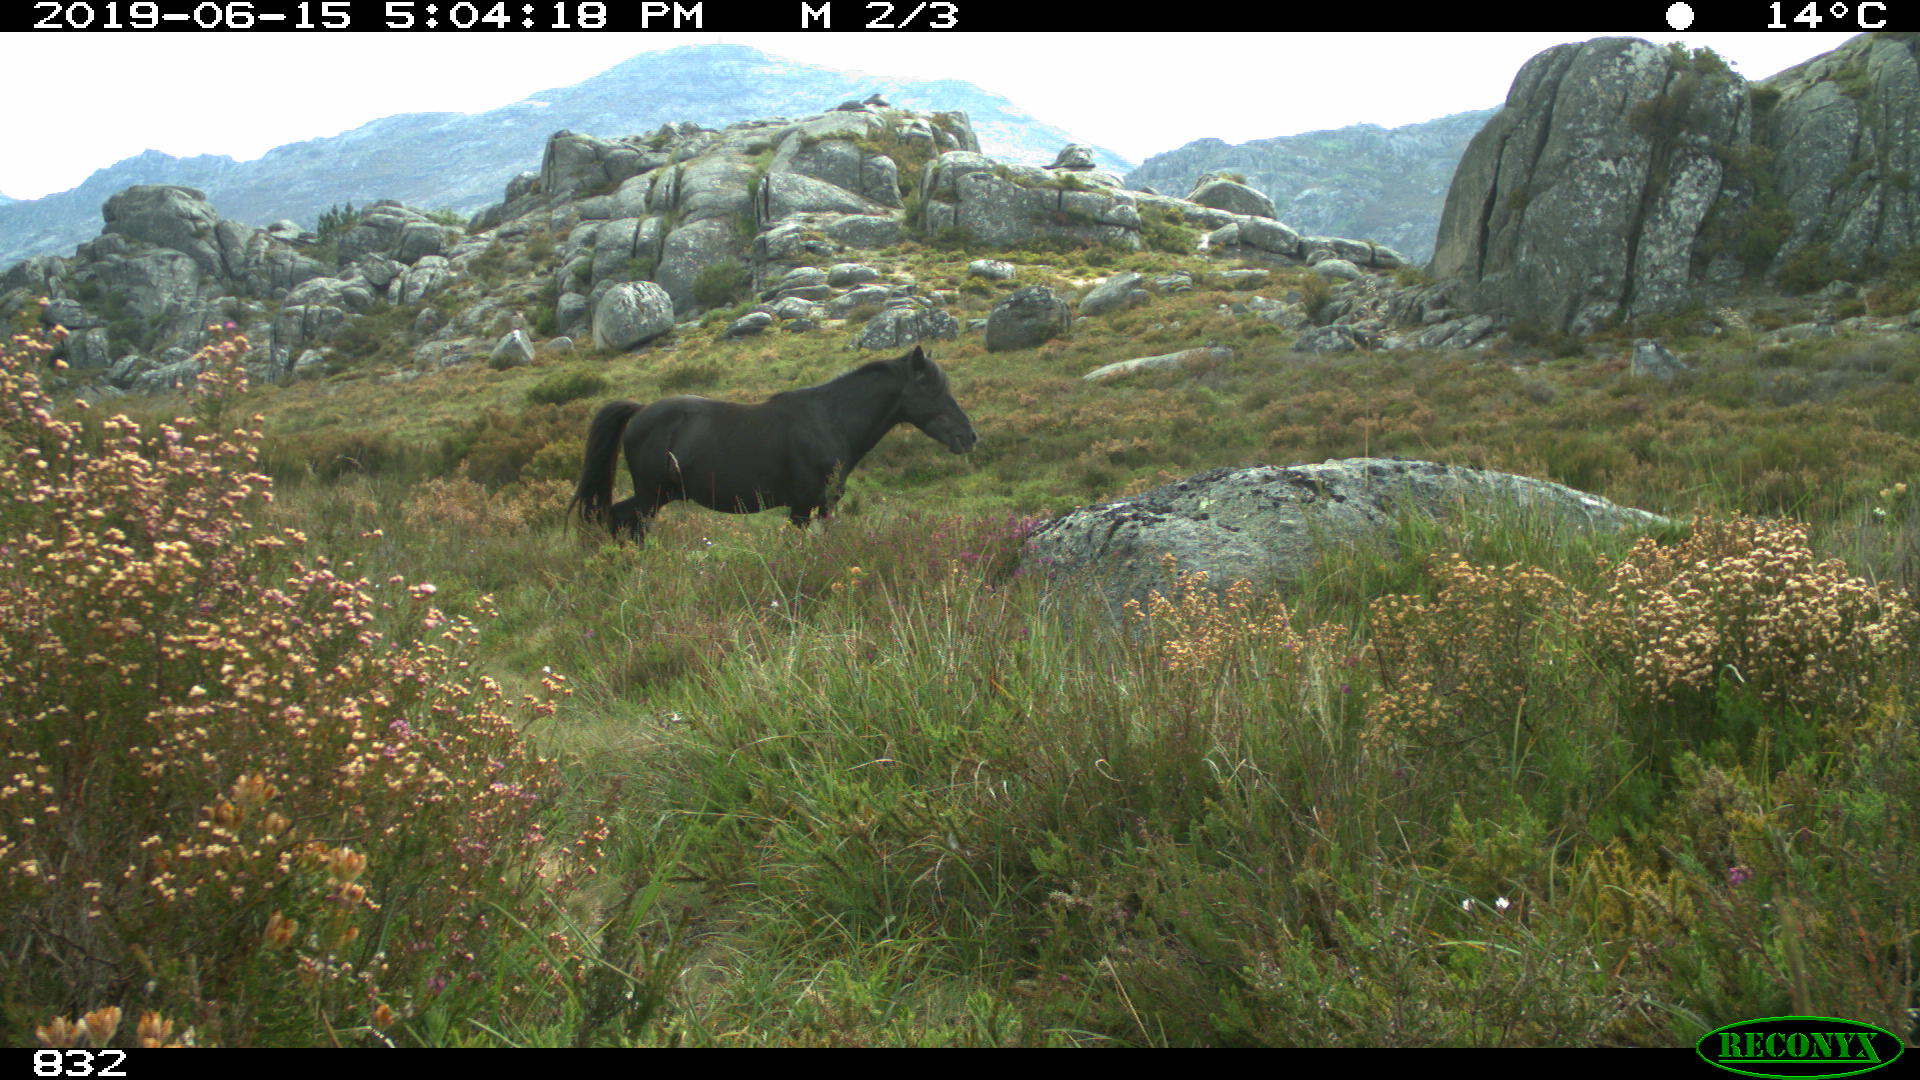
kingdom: Animalia
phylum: Chordata
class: Mammalia
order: Perissodactyla
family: Equidae
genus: Equus
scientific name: Equus caballus
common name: Horse
